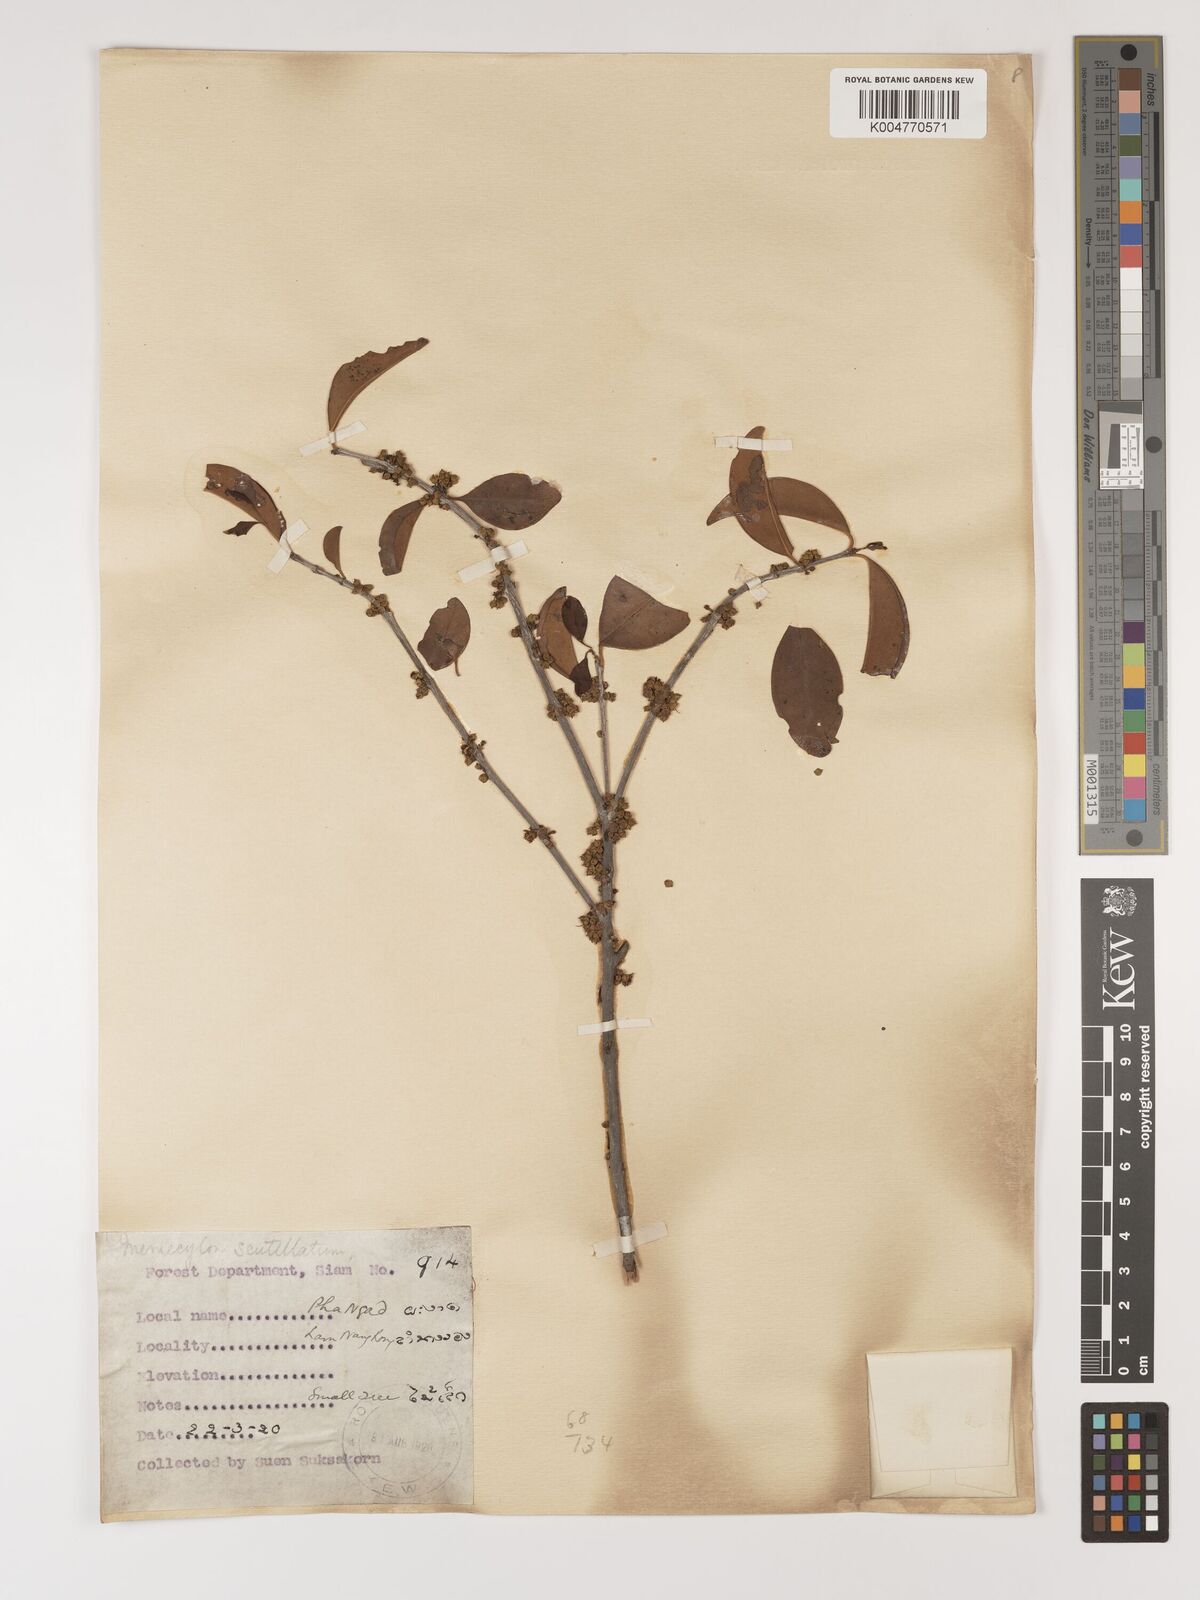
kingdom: Plantae
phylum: Tracheophyta
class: Magnoliopsida
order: Myrtales
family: Melastomataceae
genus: Memecylon
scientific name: Memecylon scutellatum
